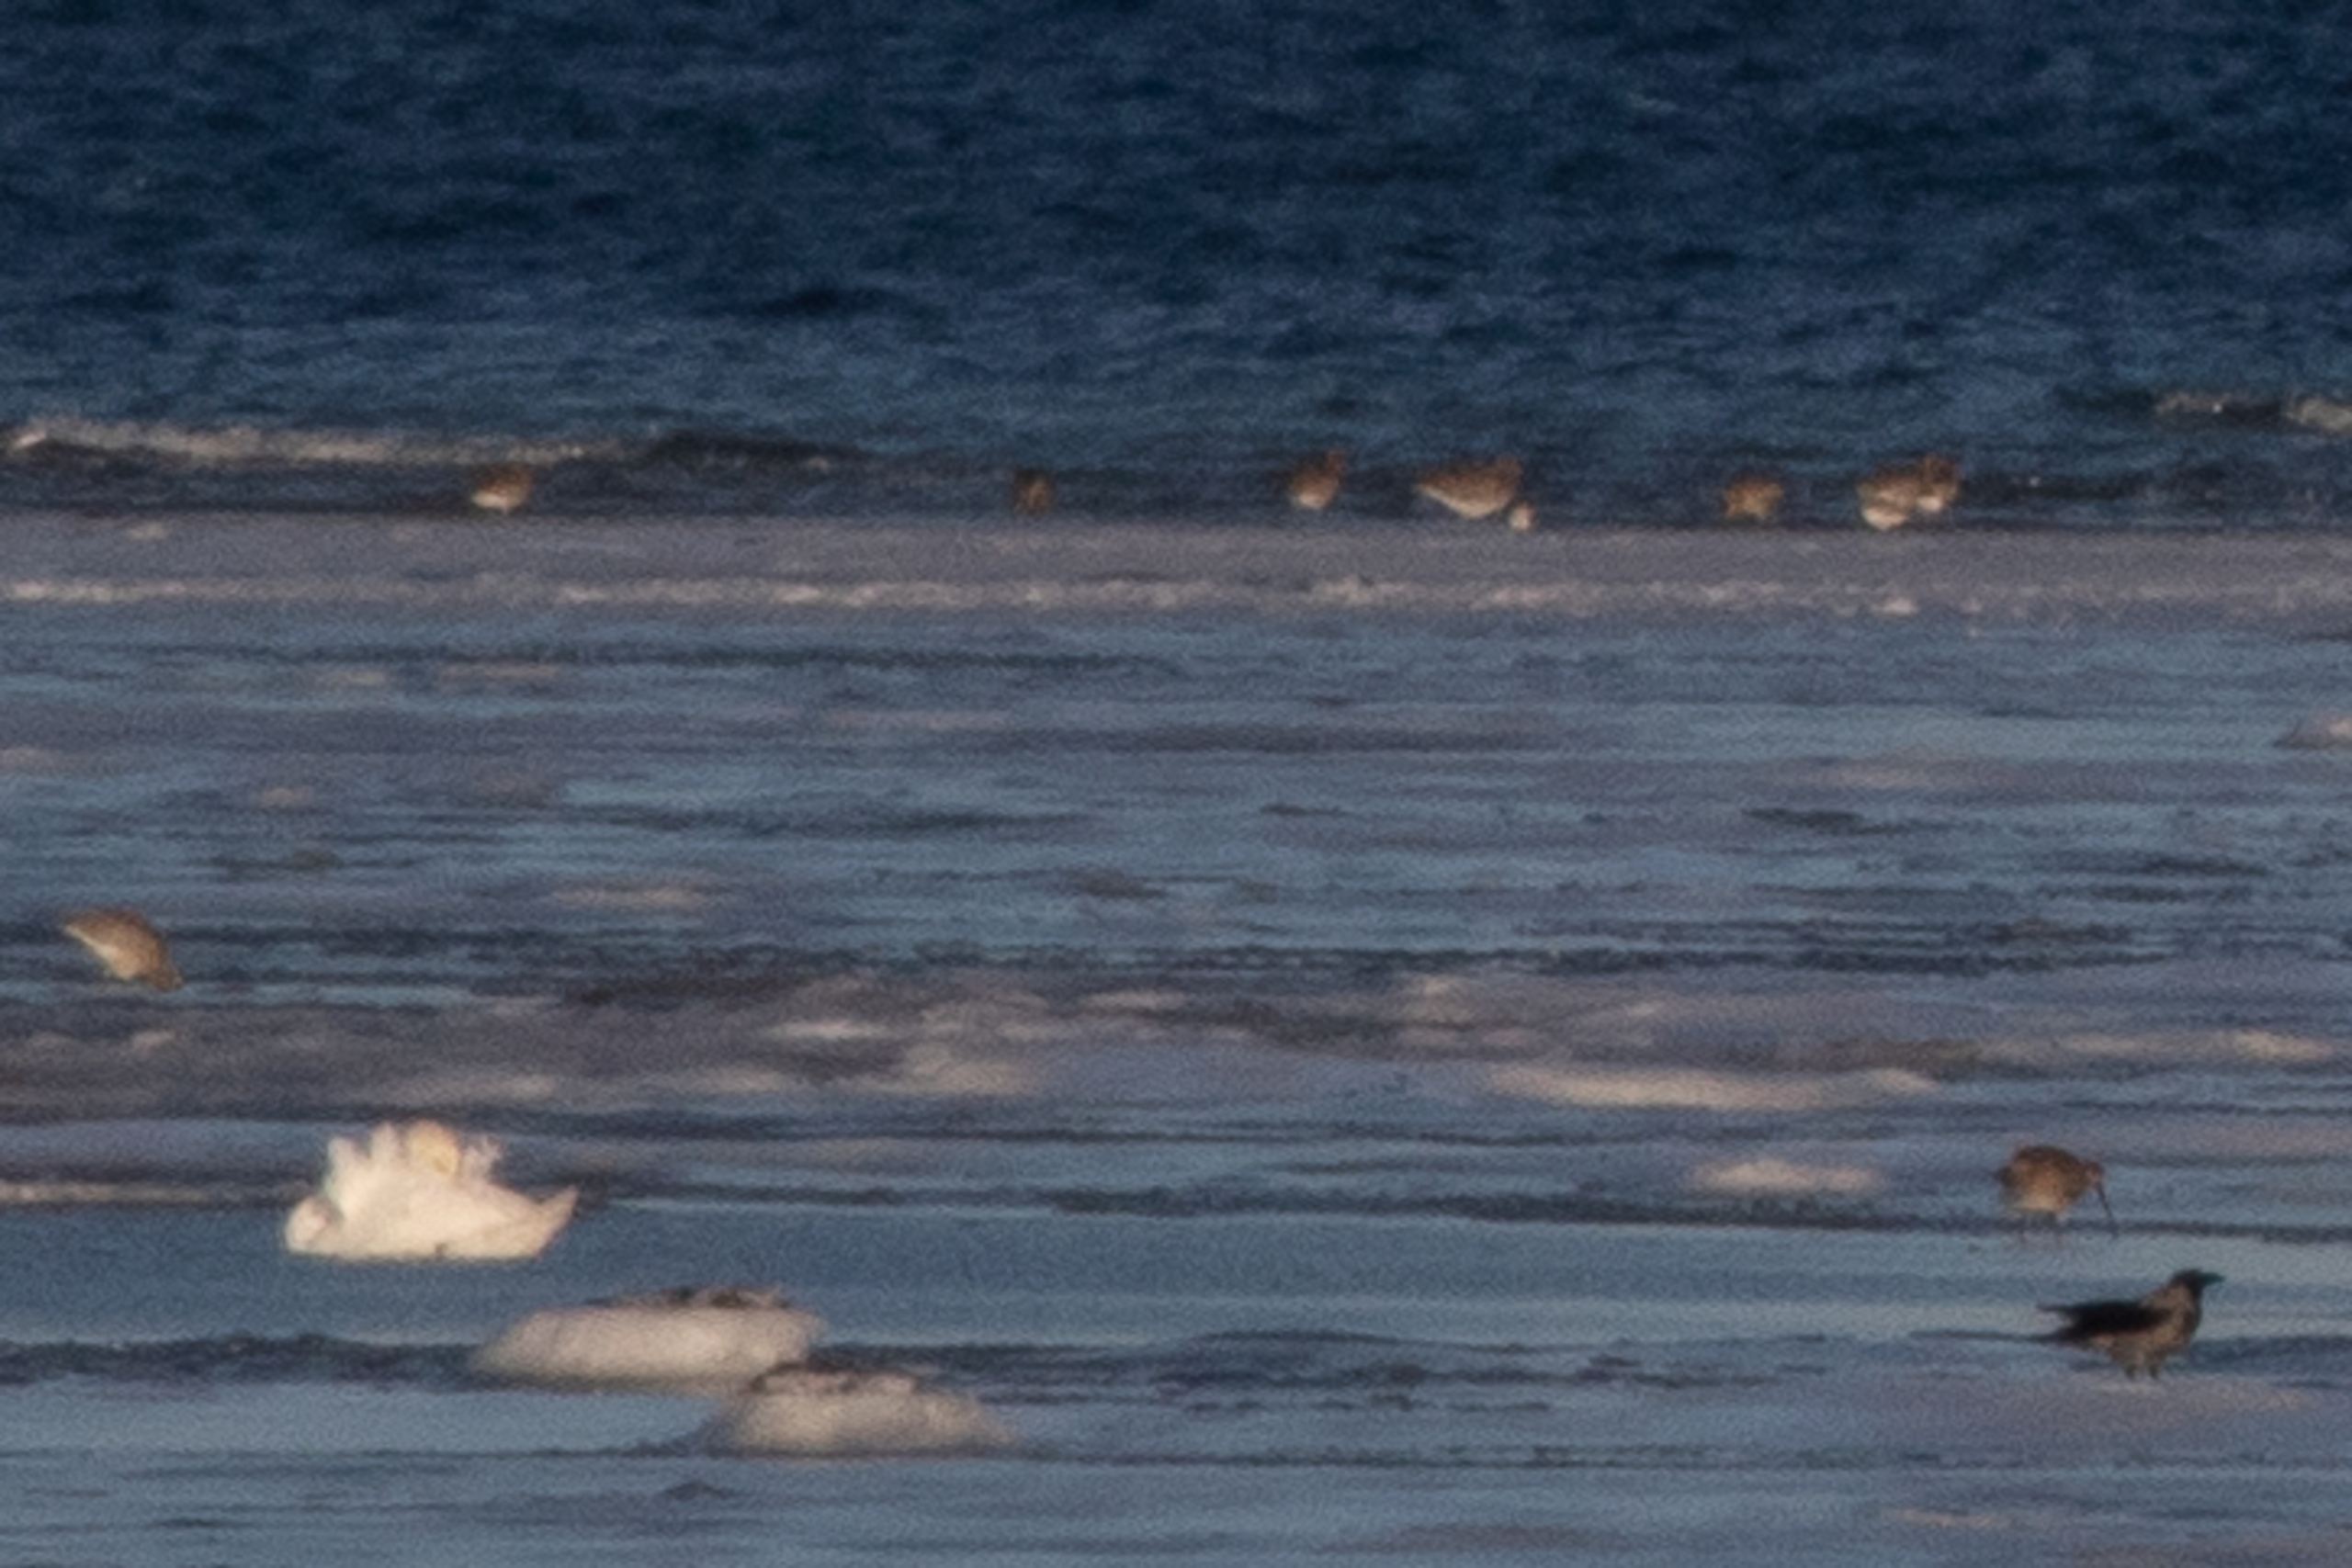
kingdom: Animalia
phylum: Chordata
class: Aves
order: Charadriiformes
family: Scolopacidae
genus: Numenius
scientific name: Numenius arquata
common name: Storspove
